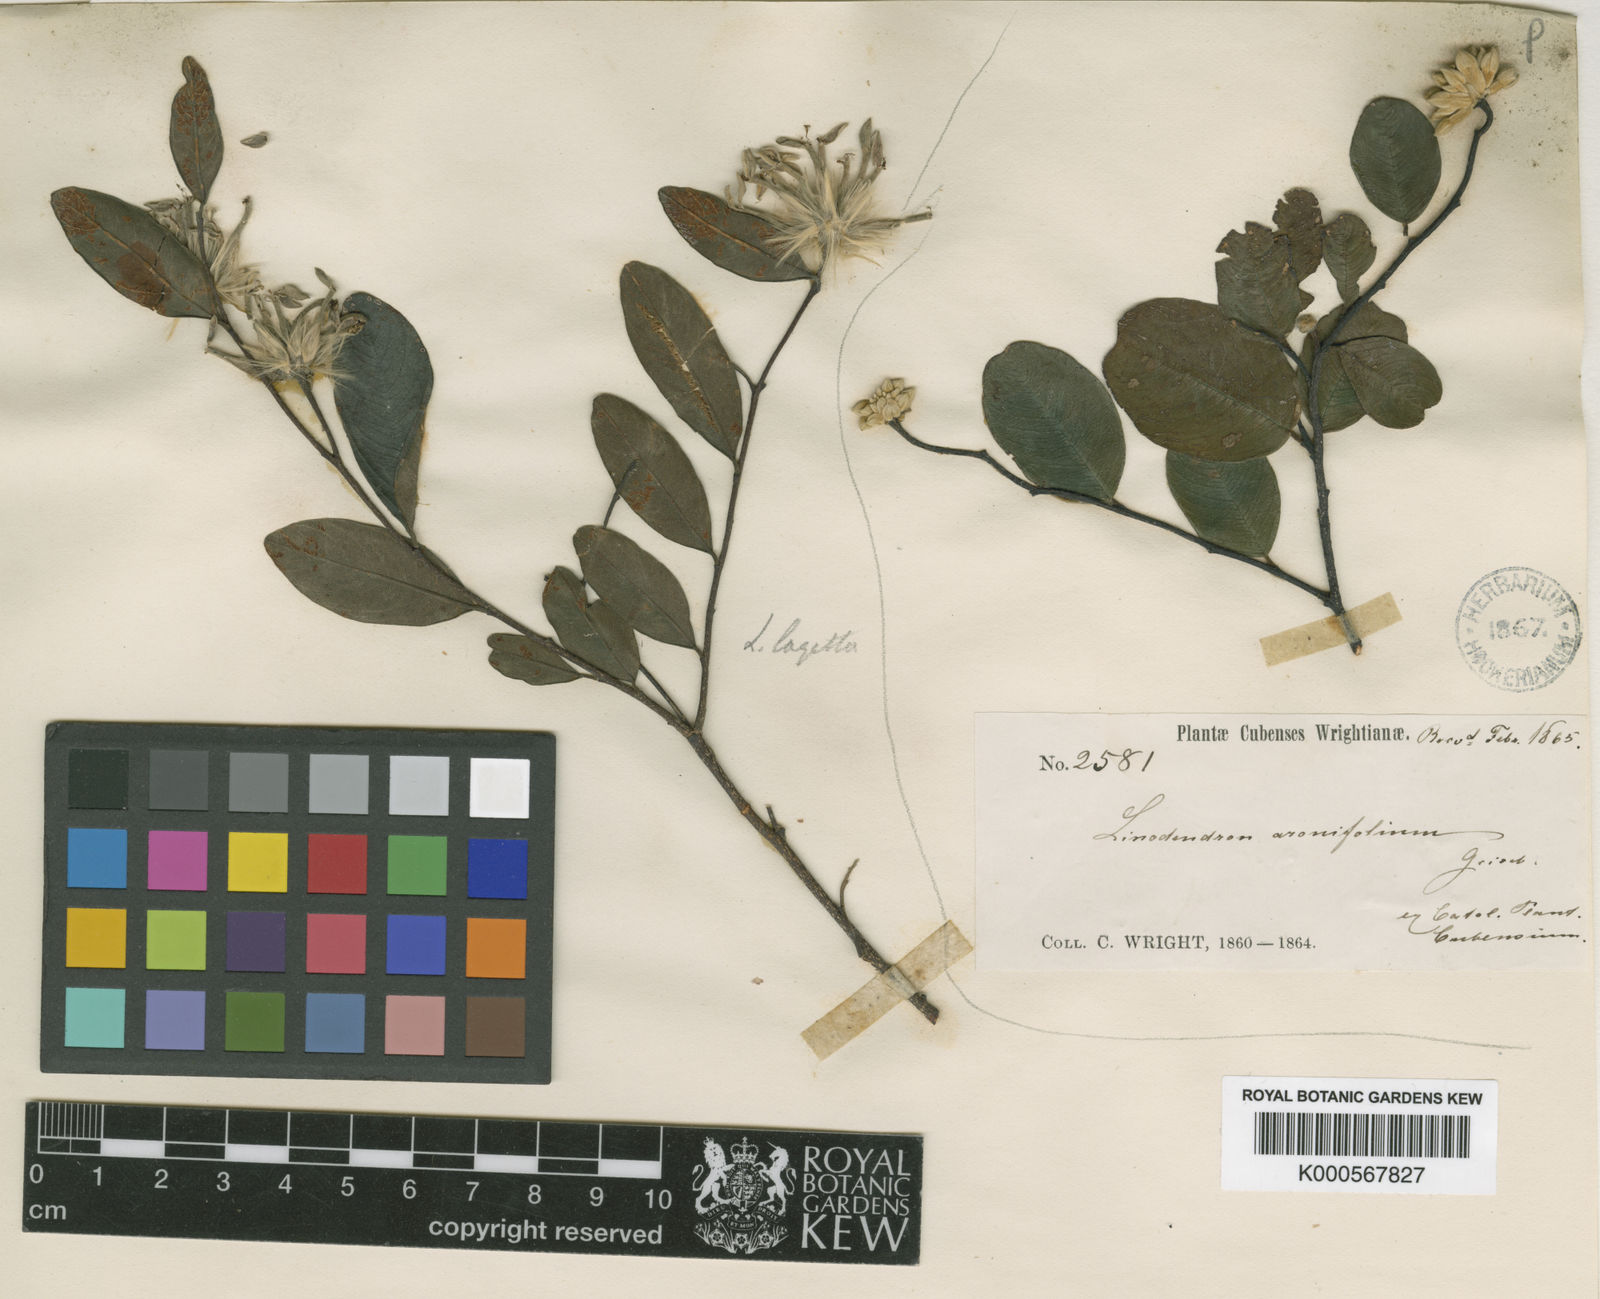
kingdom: Plantae
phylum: Tracheophyta
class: Magnoliopsida
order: Malvales
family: Thymelaeaceae
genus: Linodendron
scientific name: Linodendron aronifolium
